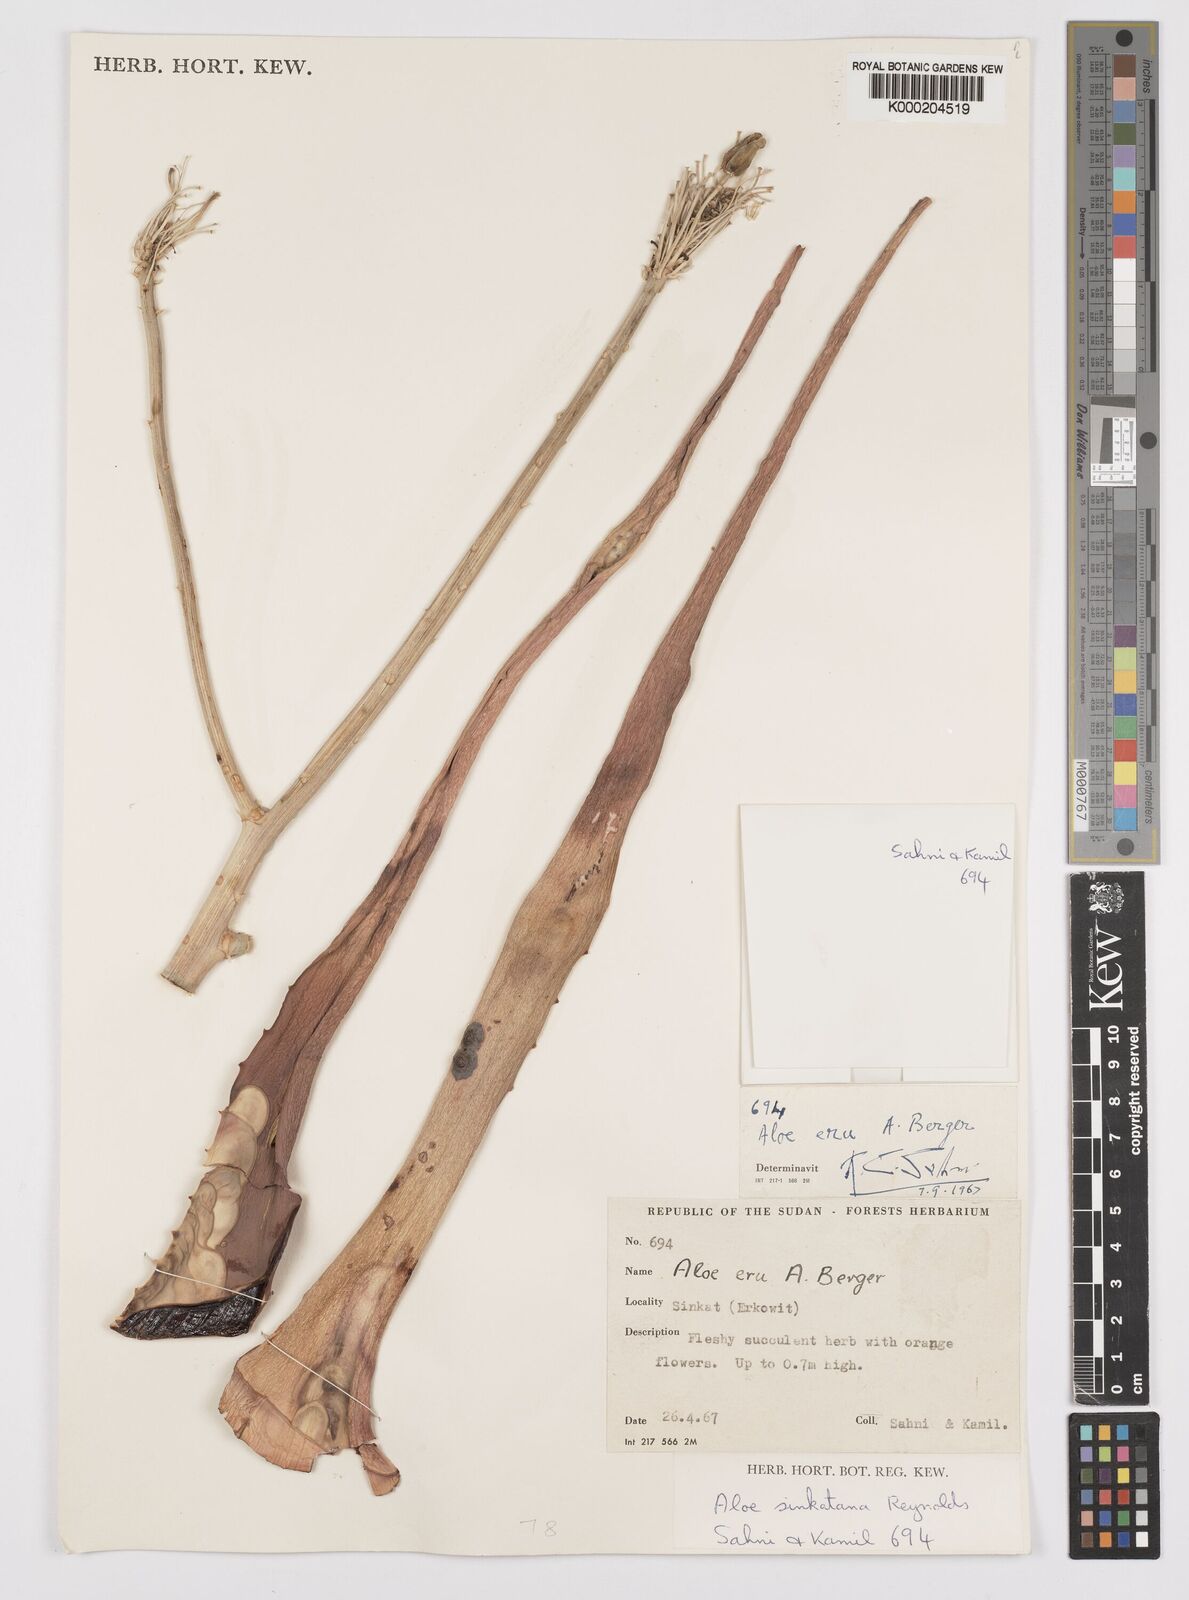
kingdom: Plantae
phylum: Tracheophyta
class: Liliopsida
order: Asparagales
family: Asphodelaceae
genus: Aloe
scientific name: Aloe sinkatana
